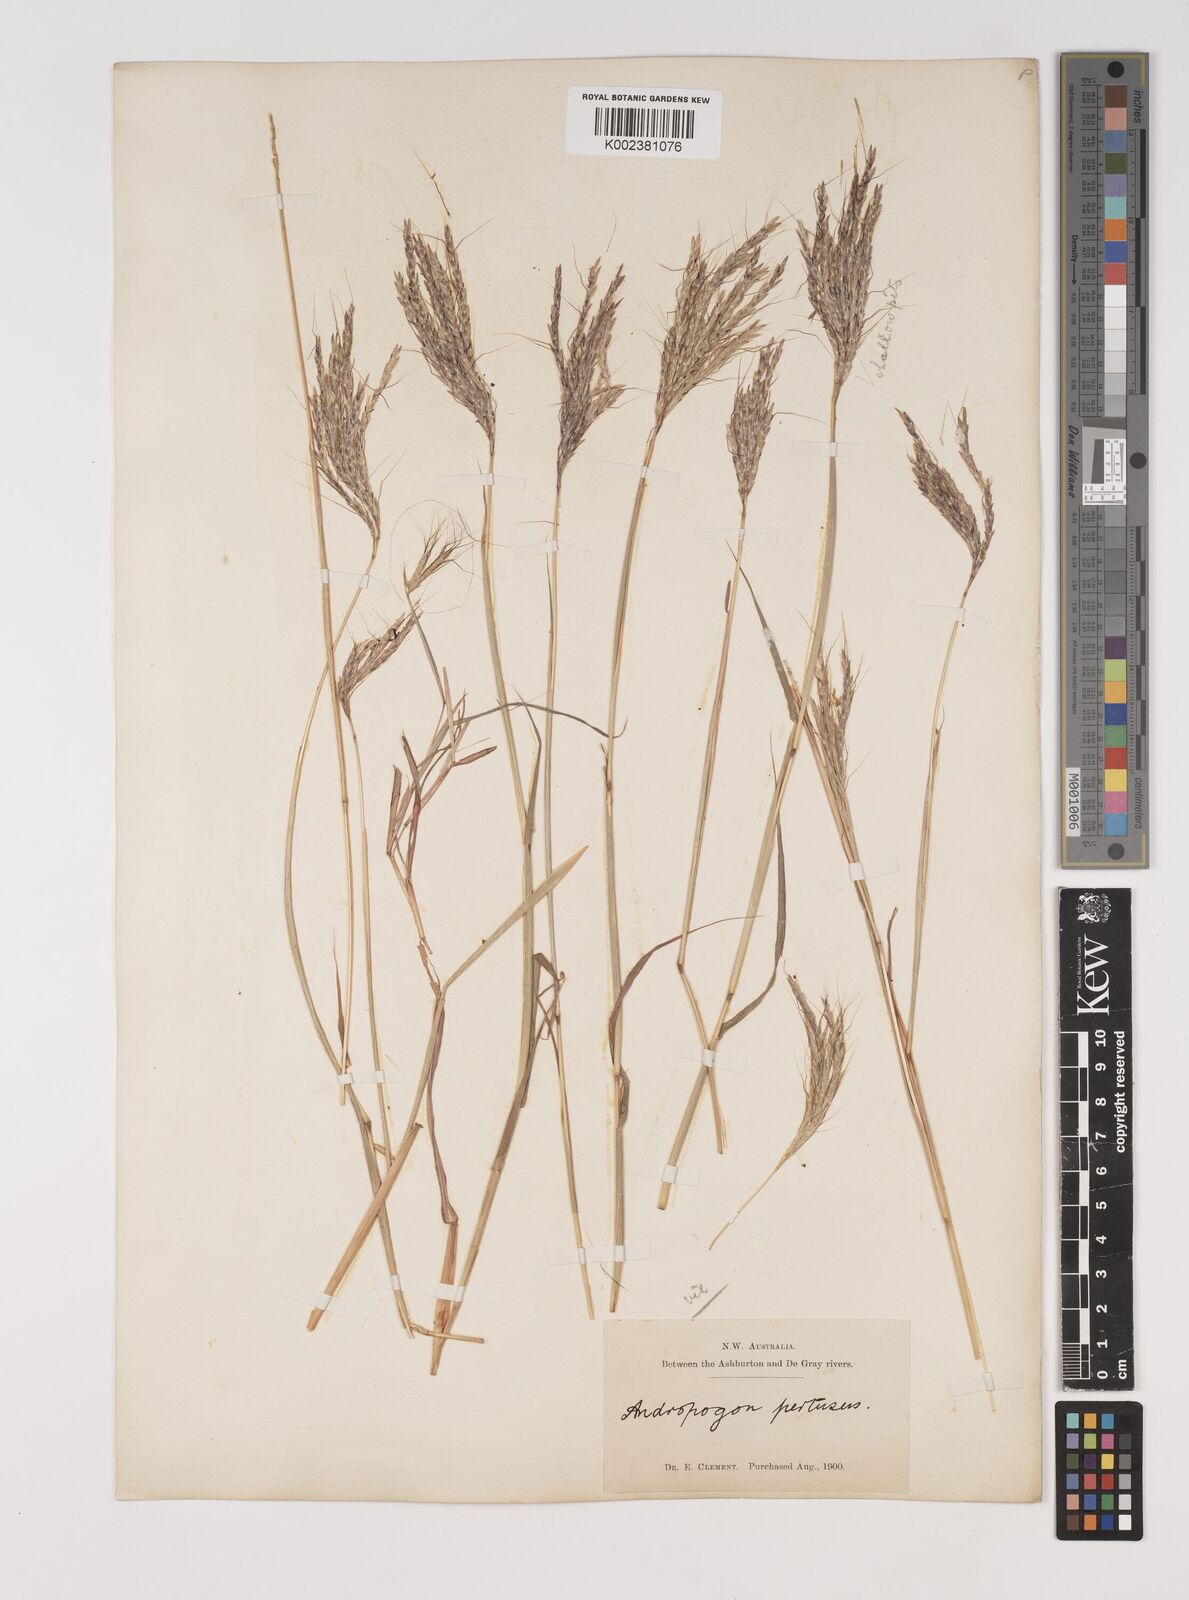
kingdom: Plantae
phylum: Tracheophyta
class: Liliopsida
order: Poales
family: Poaceae
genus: Bothriochloa
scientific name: Bothriochloa ewartiana
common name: Desert-bluegrass
